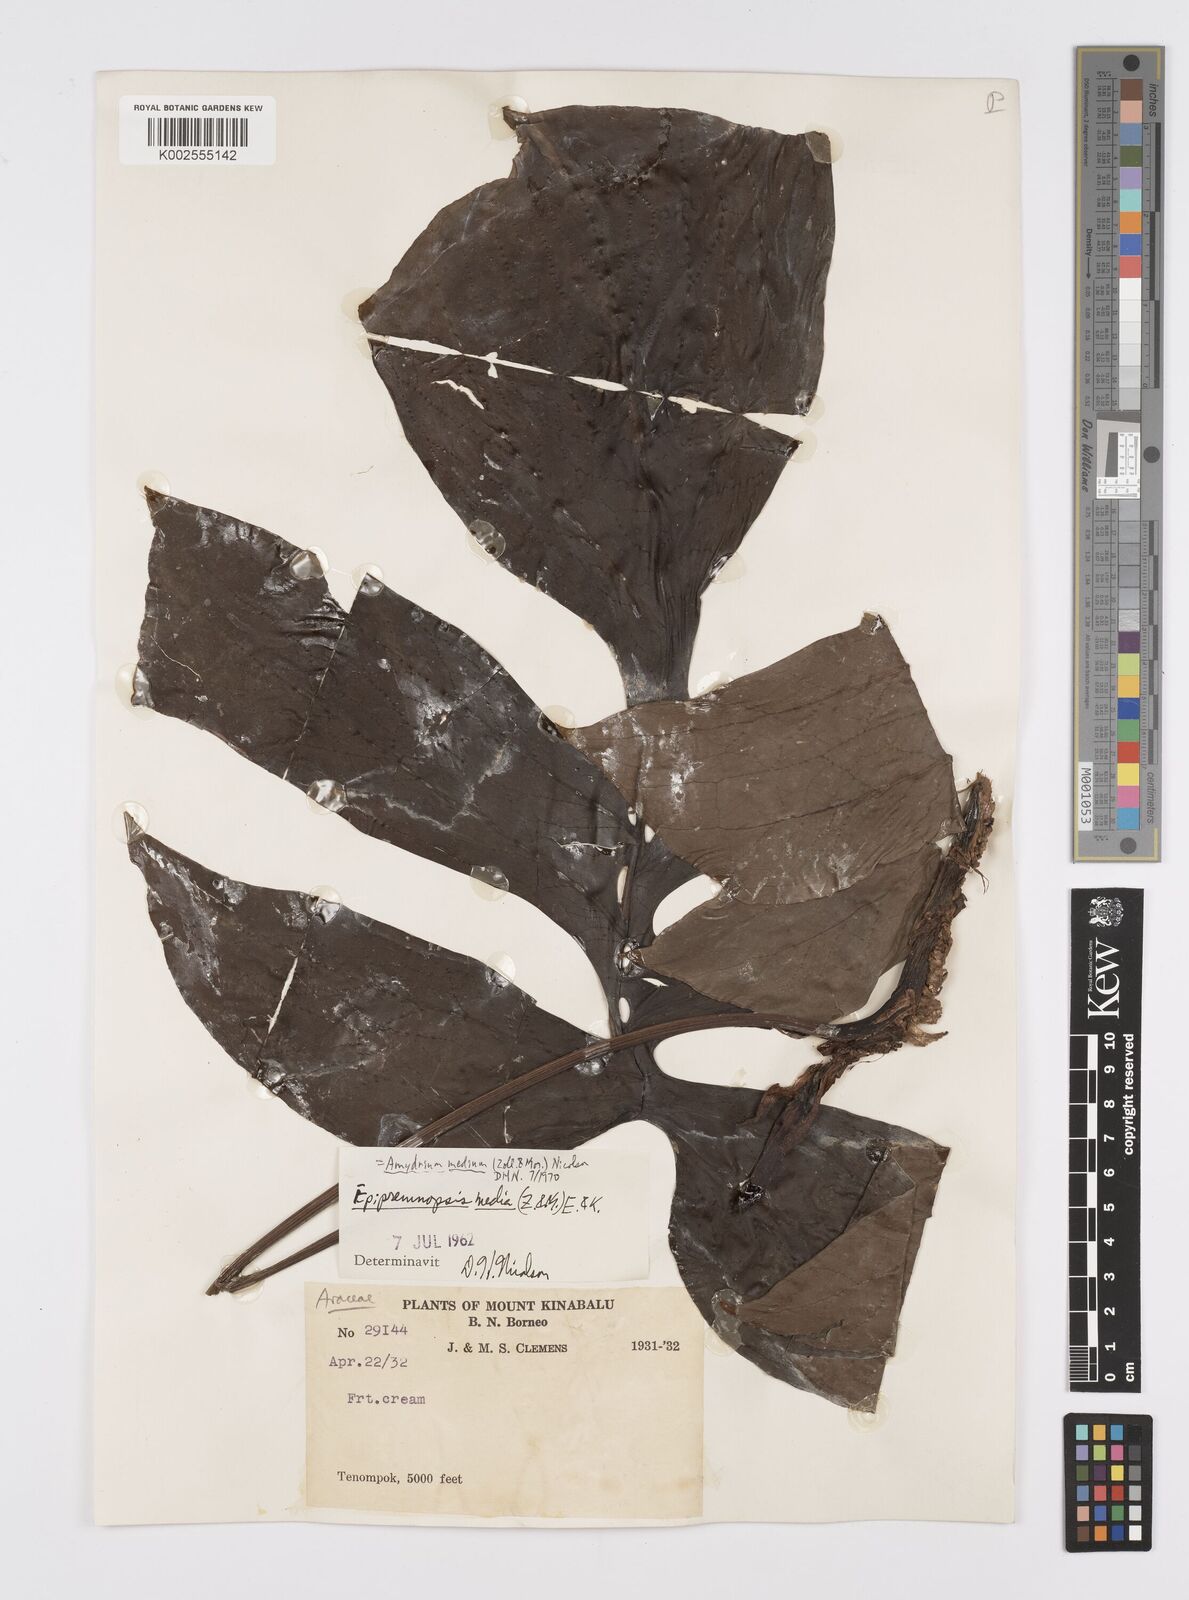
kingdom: Plantae
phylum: Tracheophyta
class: Liliopsida
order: Alismatales
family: Araceae
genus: Amydrium
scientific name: Amydrium medium
